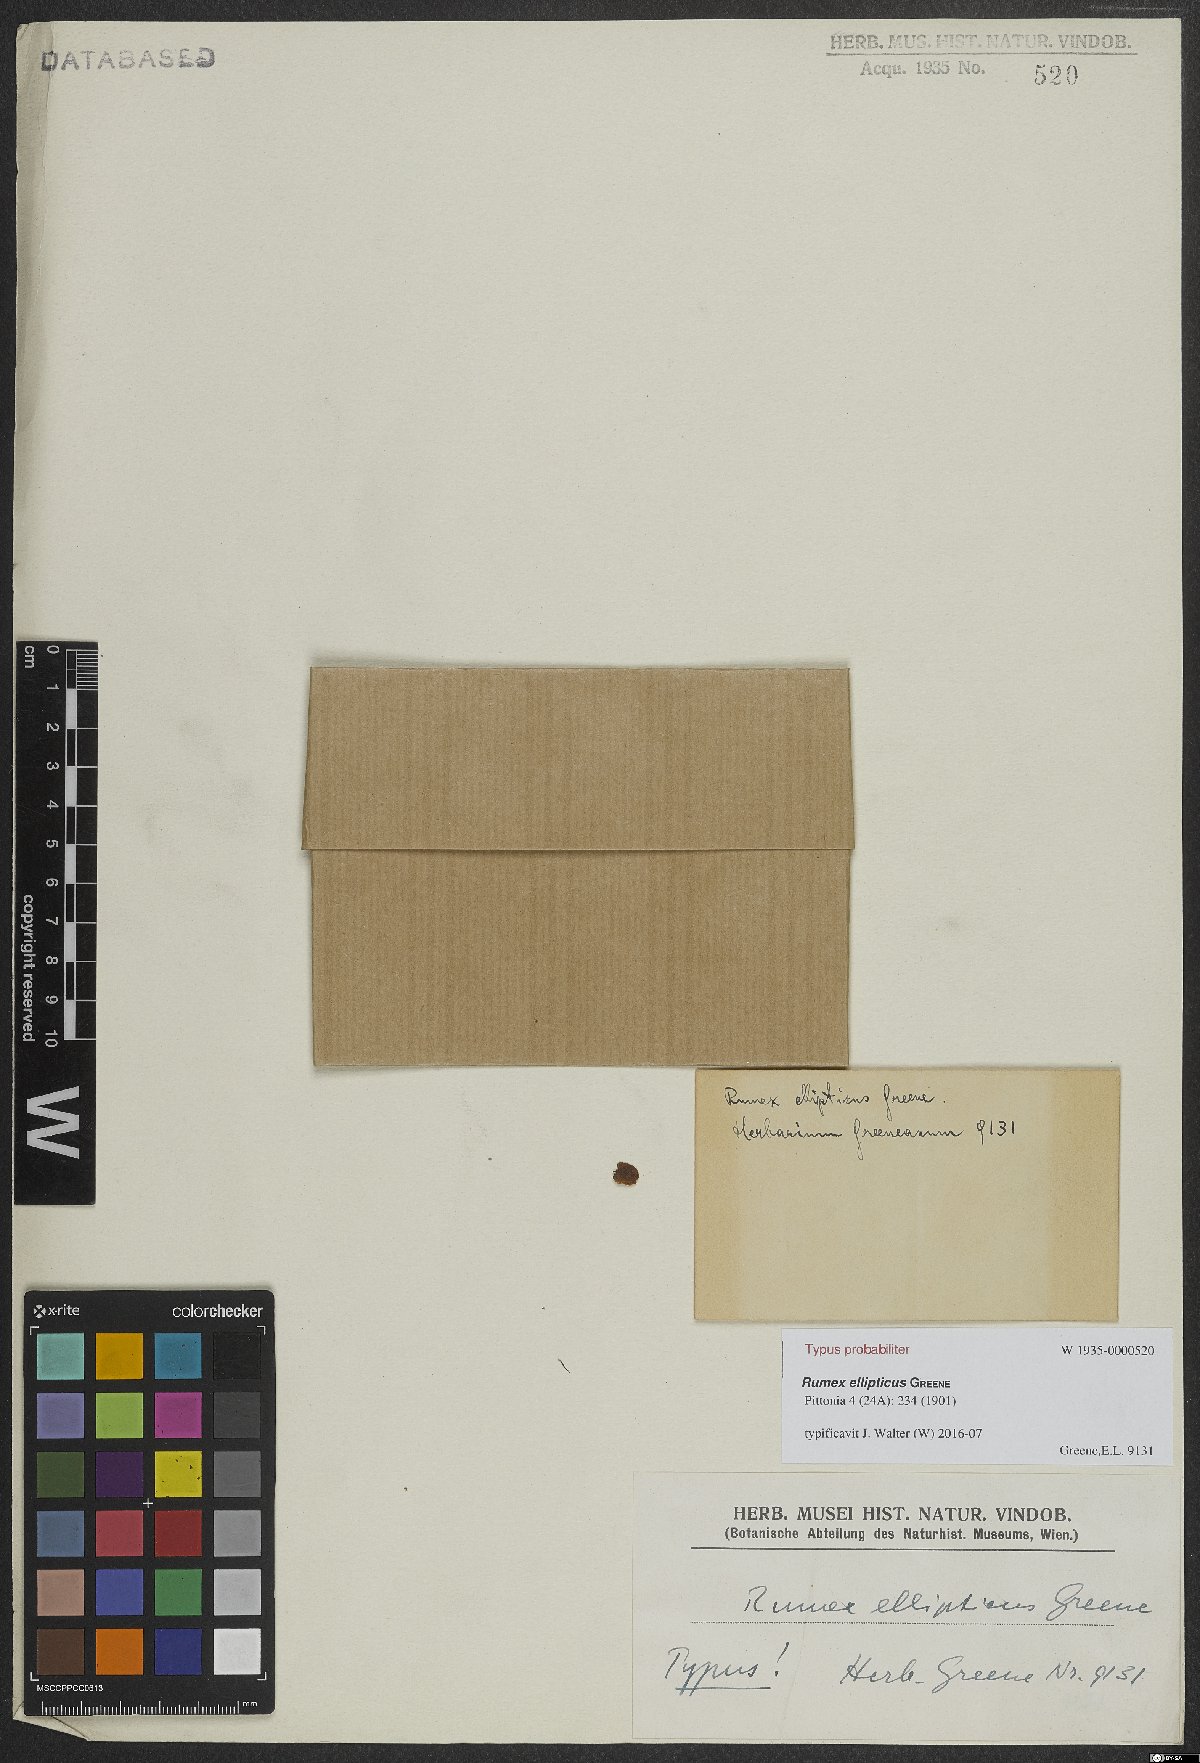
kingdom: Plantae
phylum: Tracheophyta
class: Magnoliopsida
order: Caryophyllales
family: Polygonaceae
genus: Rumex
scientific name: Rumex ellipticus
